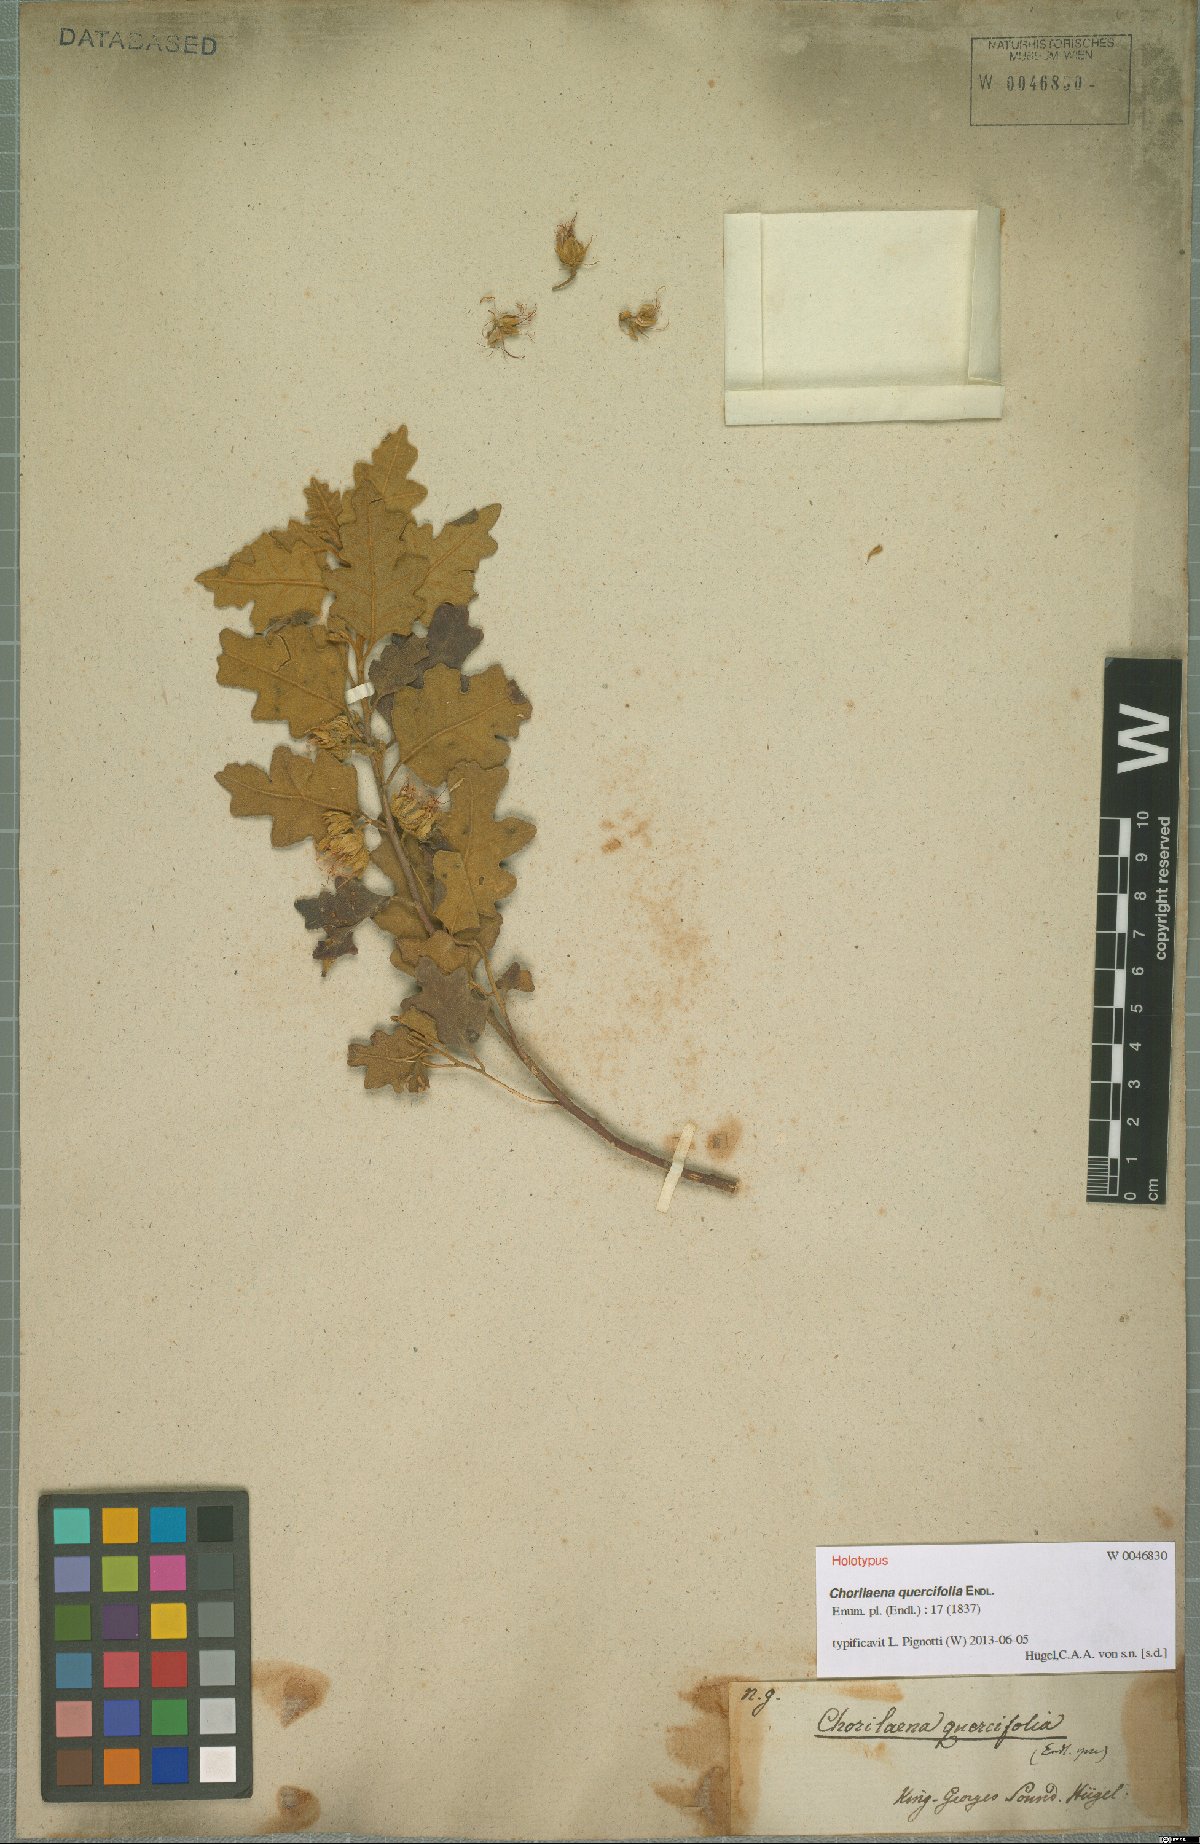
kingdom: Plantae
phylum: Tracheophyta
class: Magnoliopsida
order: Sapindales
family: Rutaceae
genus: Chorilaena
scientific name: Chorilaena quercifolia
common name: Wild hop
